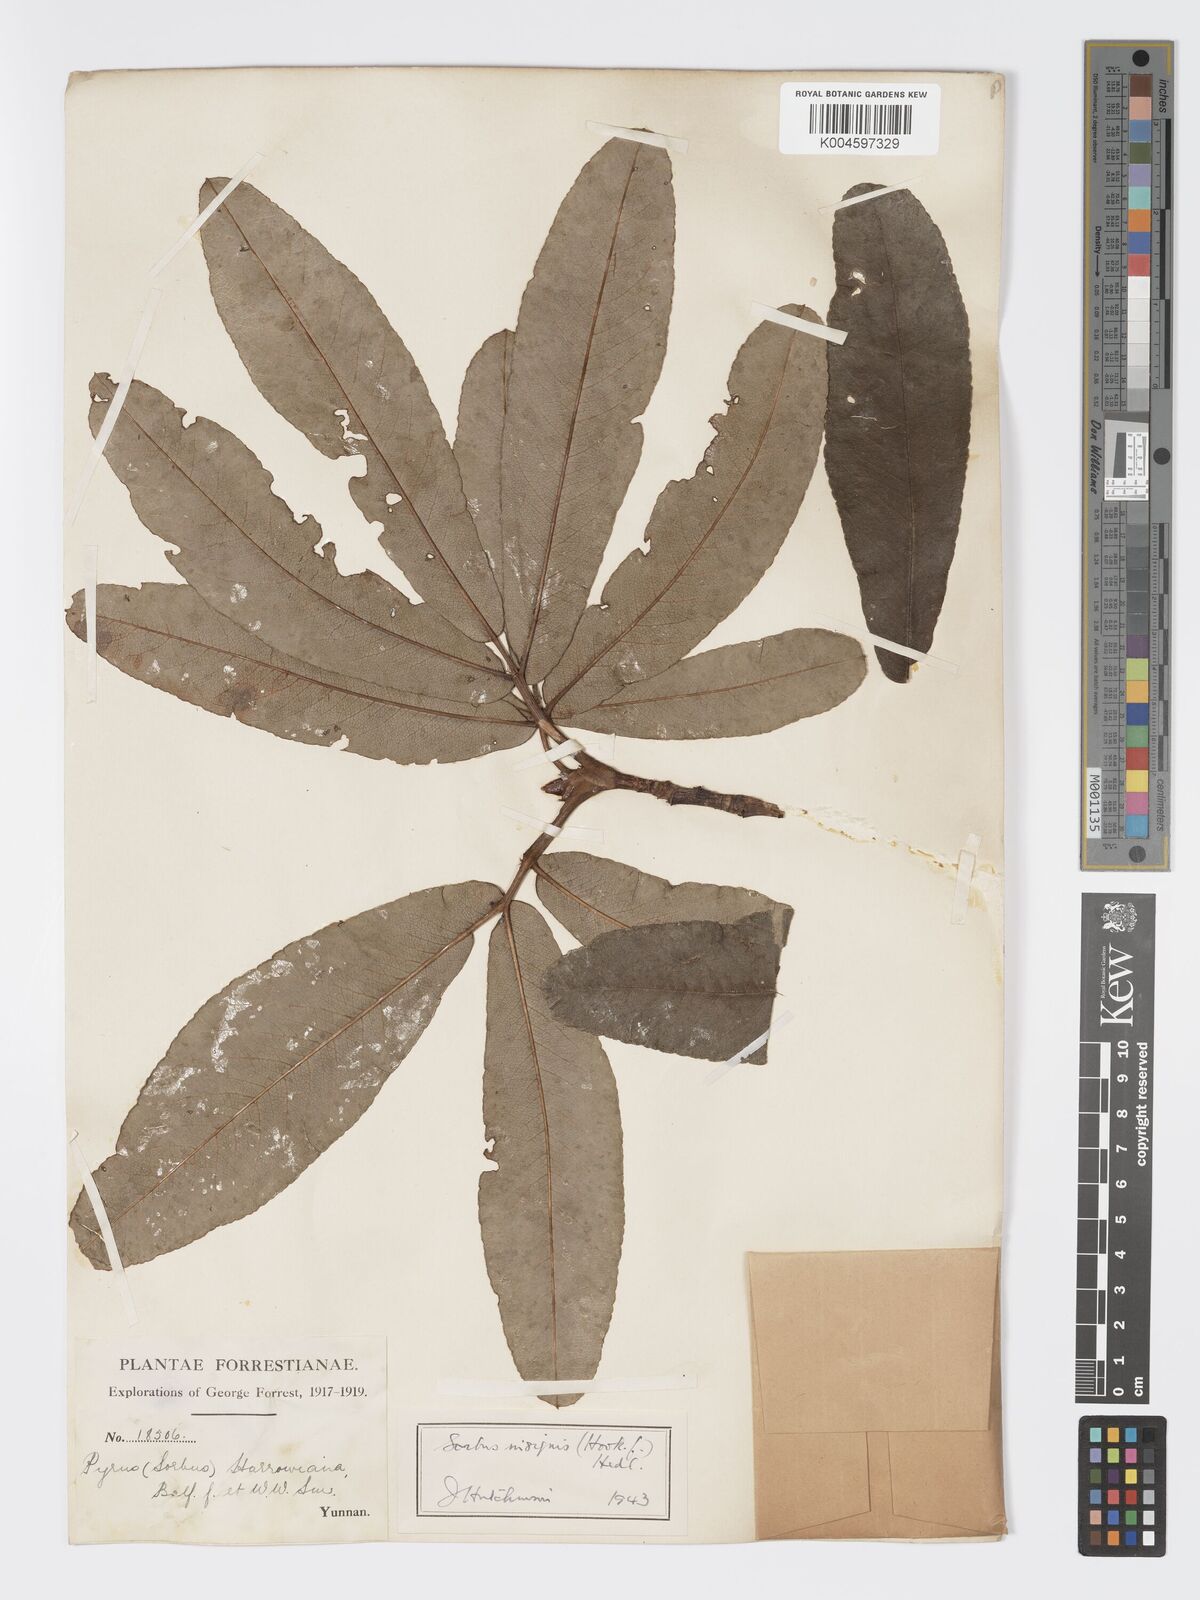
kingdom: Plantae
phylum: Tracheophyta
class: Magnoliopsida
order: Rosales
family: Rosaceae
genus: Sorbus
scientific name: Sorbus
